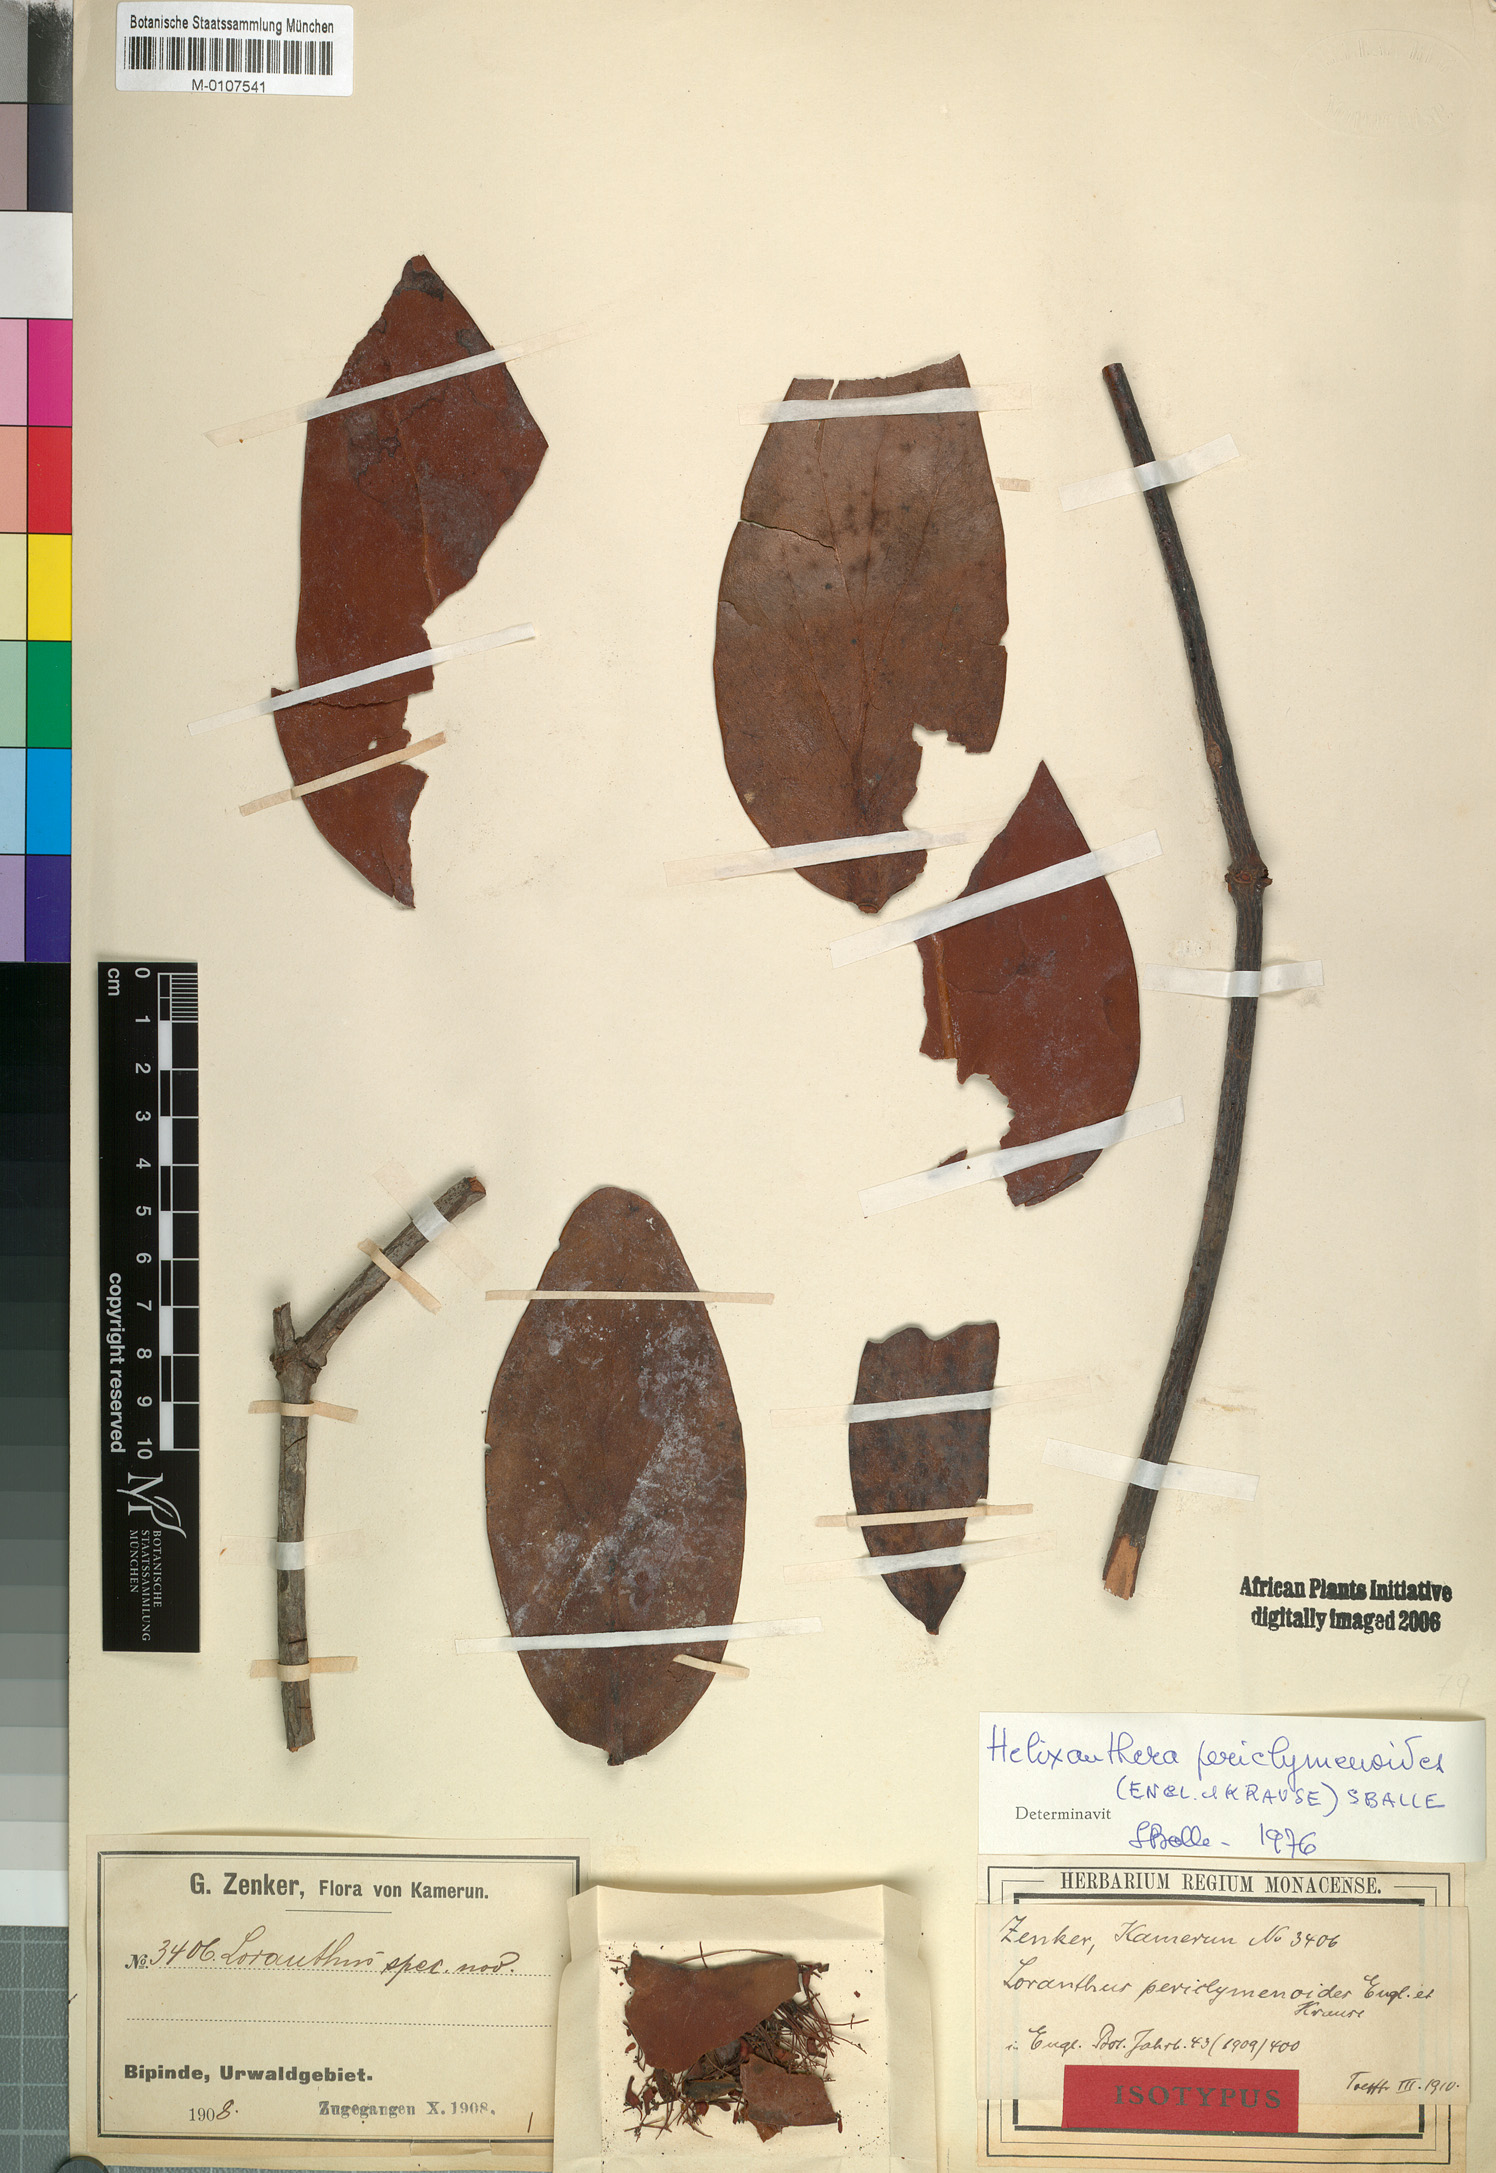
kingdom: Plantae
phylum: Tracheophyta
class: Magnoliopsida
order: Santalales
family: Loranthaceae
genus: Helixanthera
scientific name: Helixanthera periclymenoides
